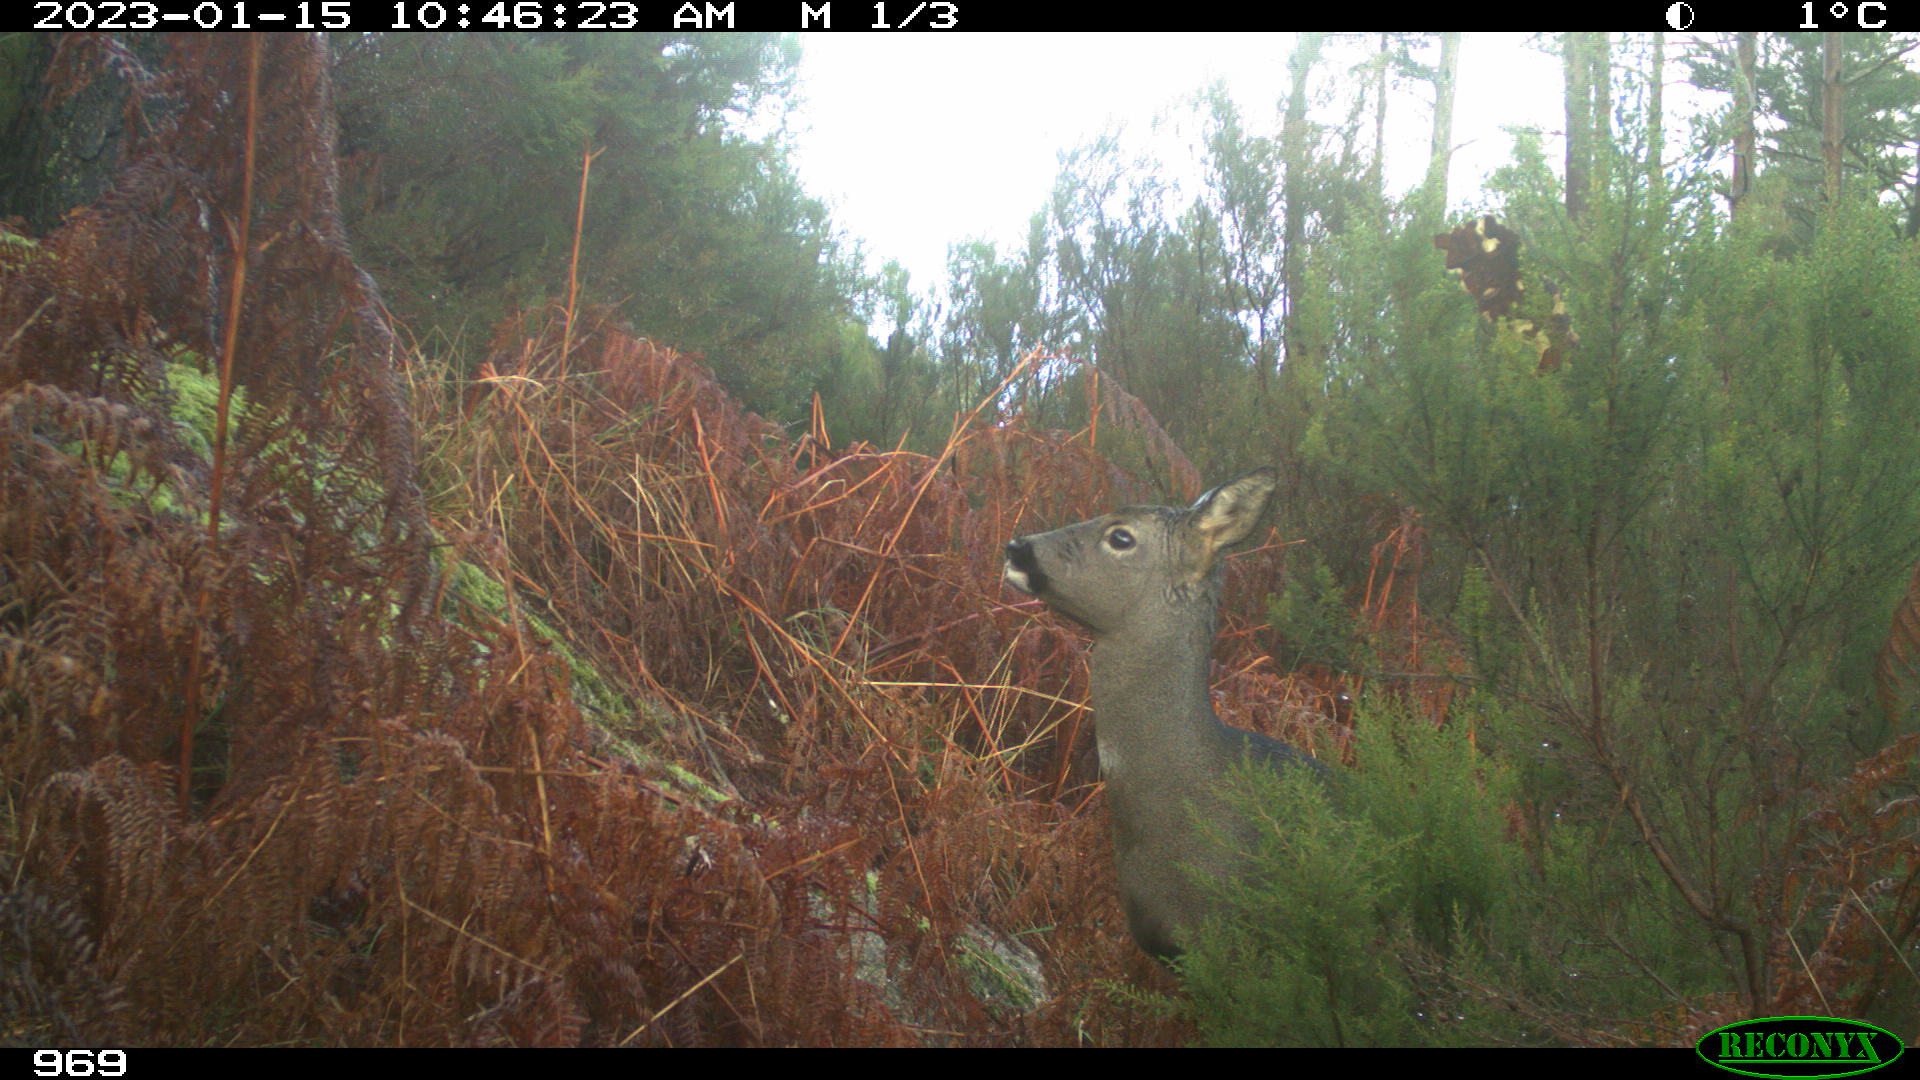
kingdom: Animalia
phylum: Chordata
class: Mammalia
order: Artiodactyla
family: Cervidae
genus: Capreolus
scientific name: Capreolus capreolus
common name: Western roe deer
